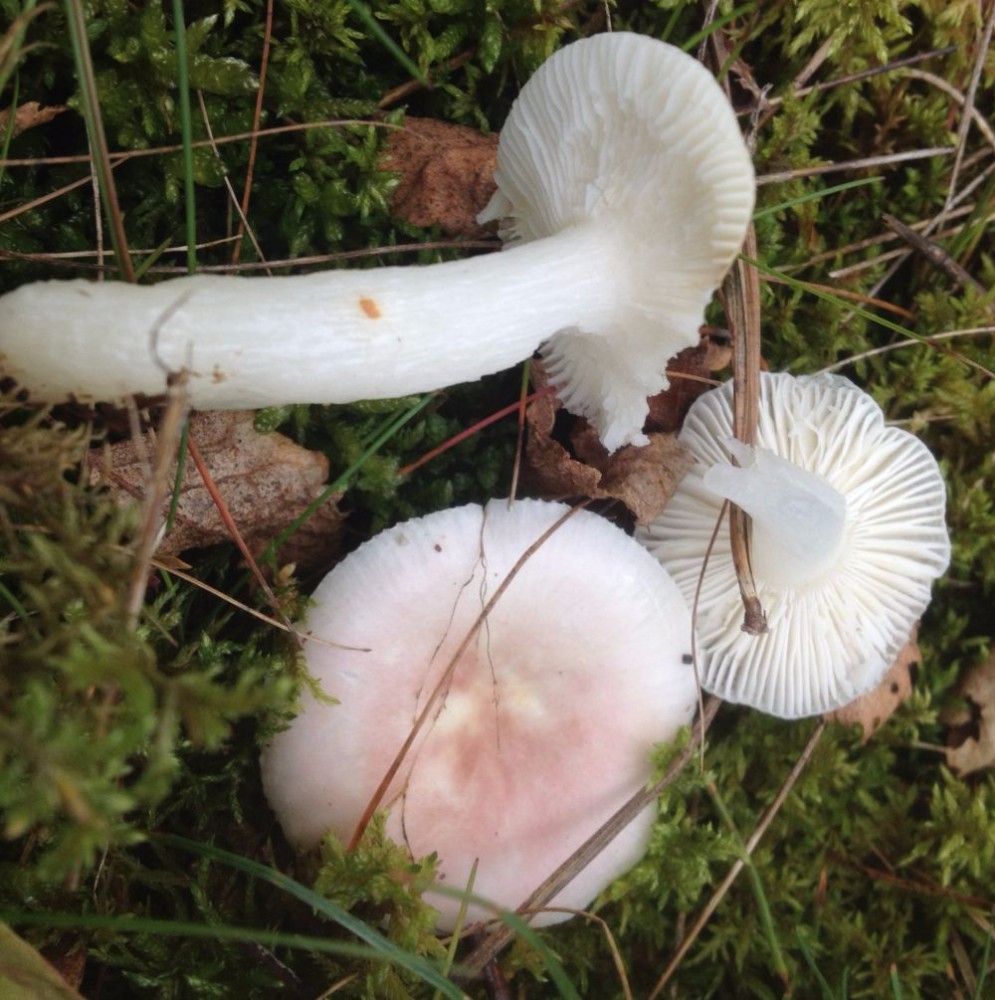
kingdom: Fungi
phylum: Basidiomycota
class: Agaricomycetes
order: Russulales
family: Russulaceae
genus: Russula
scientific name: Russula betularum
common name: bleg gift-skørhat
